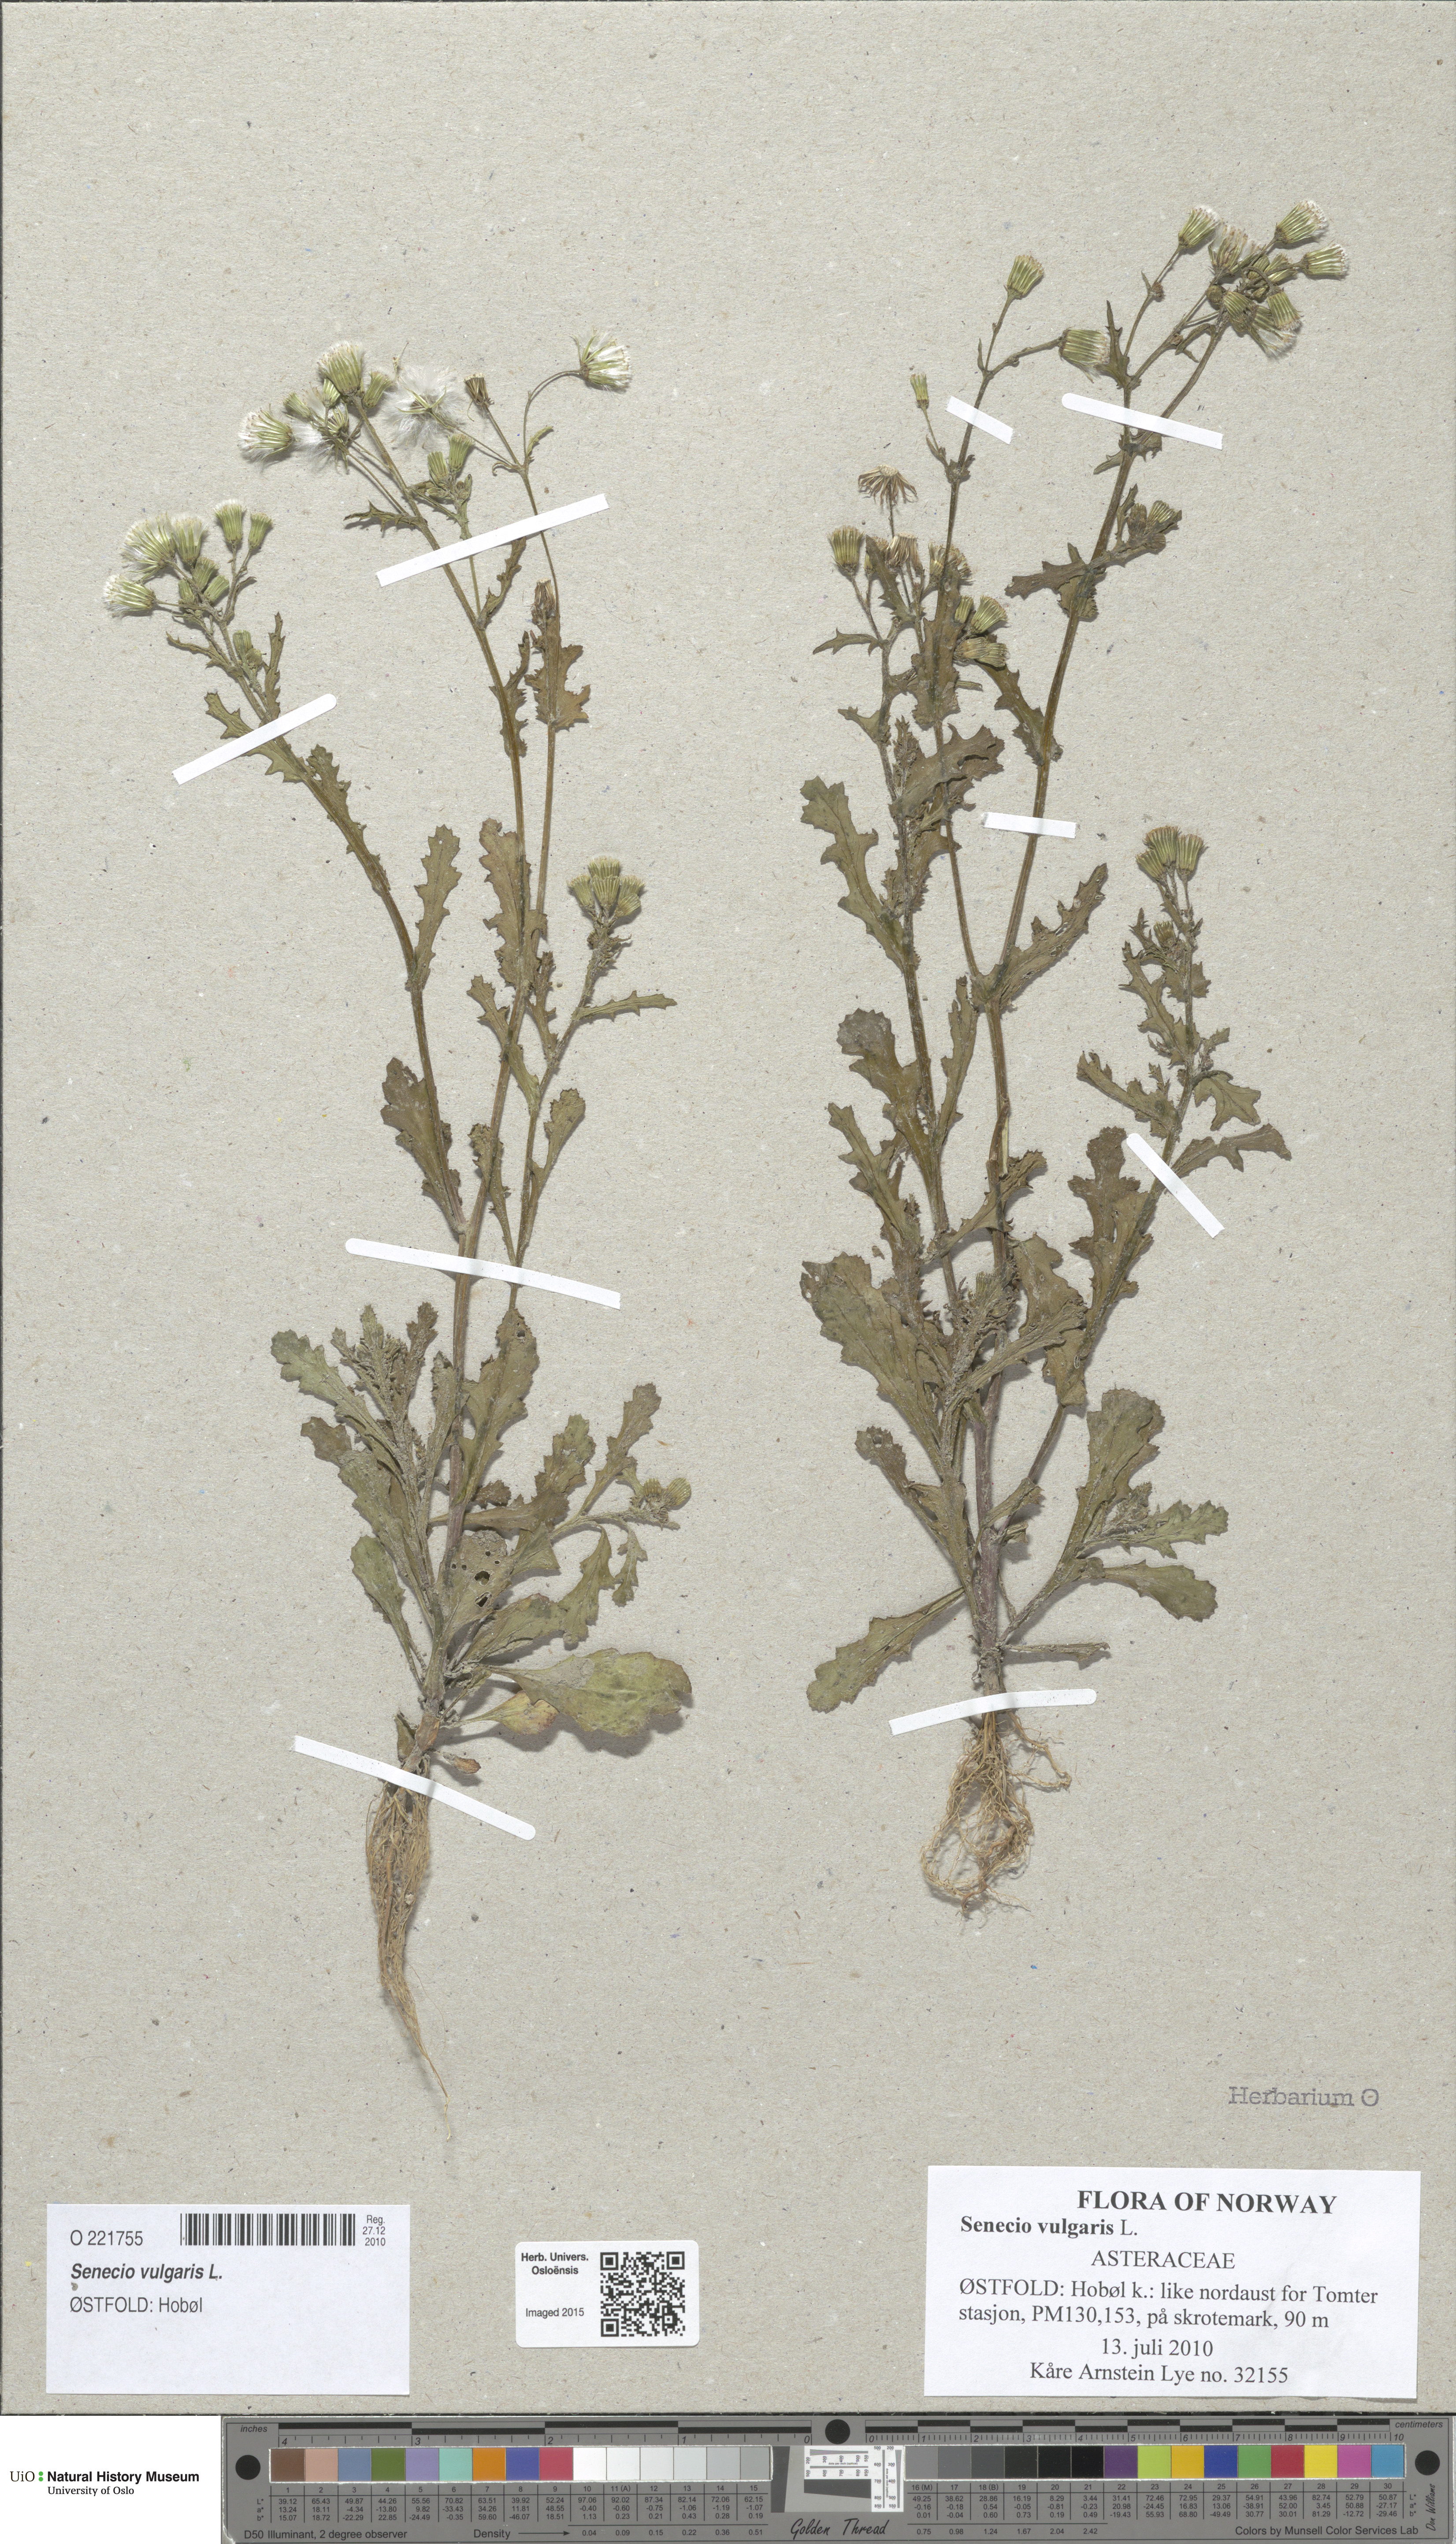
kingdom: Plantae
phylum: Tracheophyta
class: Magnoliopsida
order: Asterales
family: Asteraceae
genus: Senecio
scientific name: Senecio vulgaris
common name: Old-man-in-the-spring
